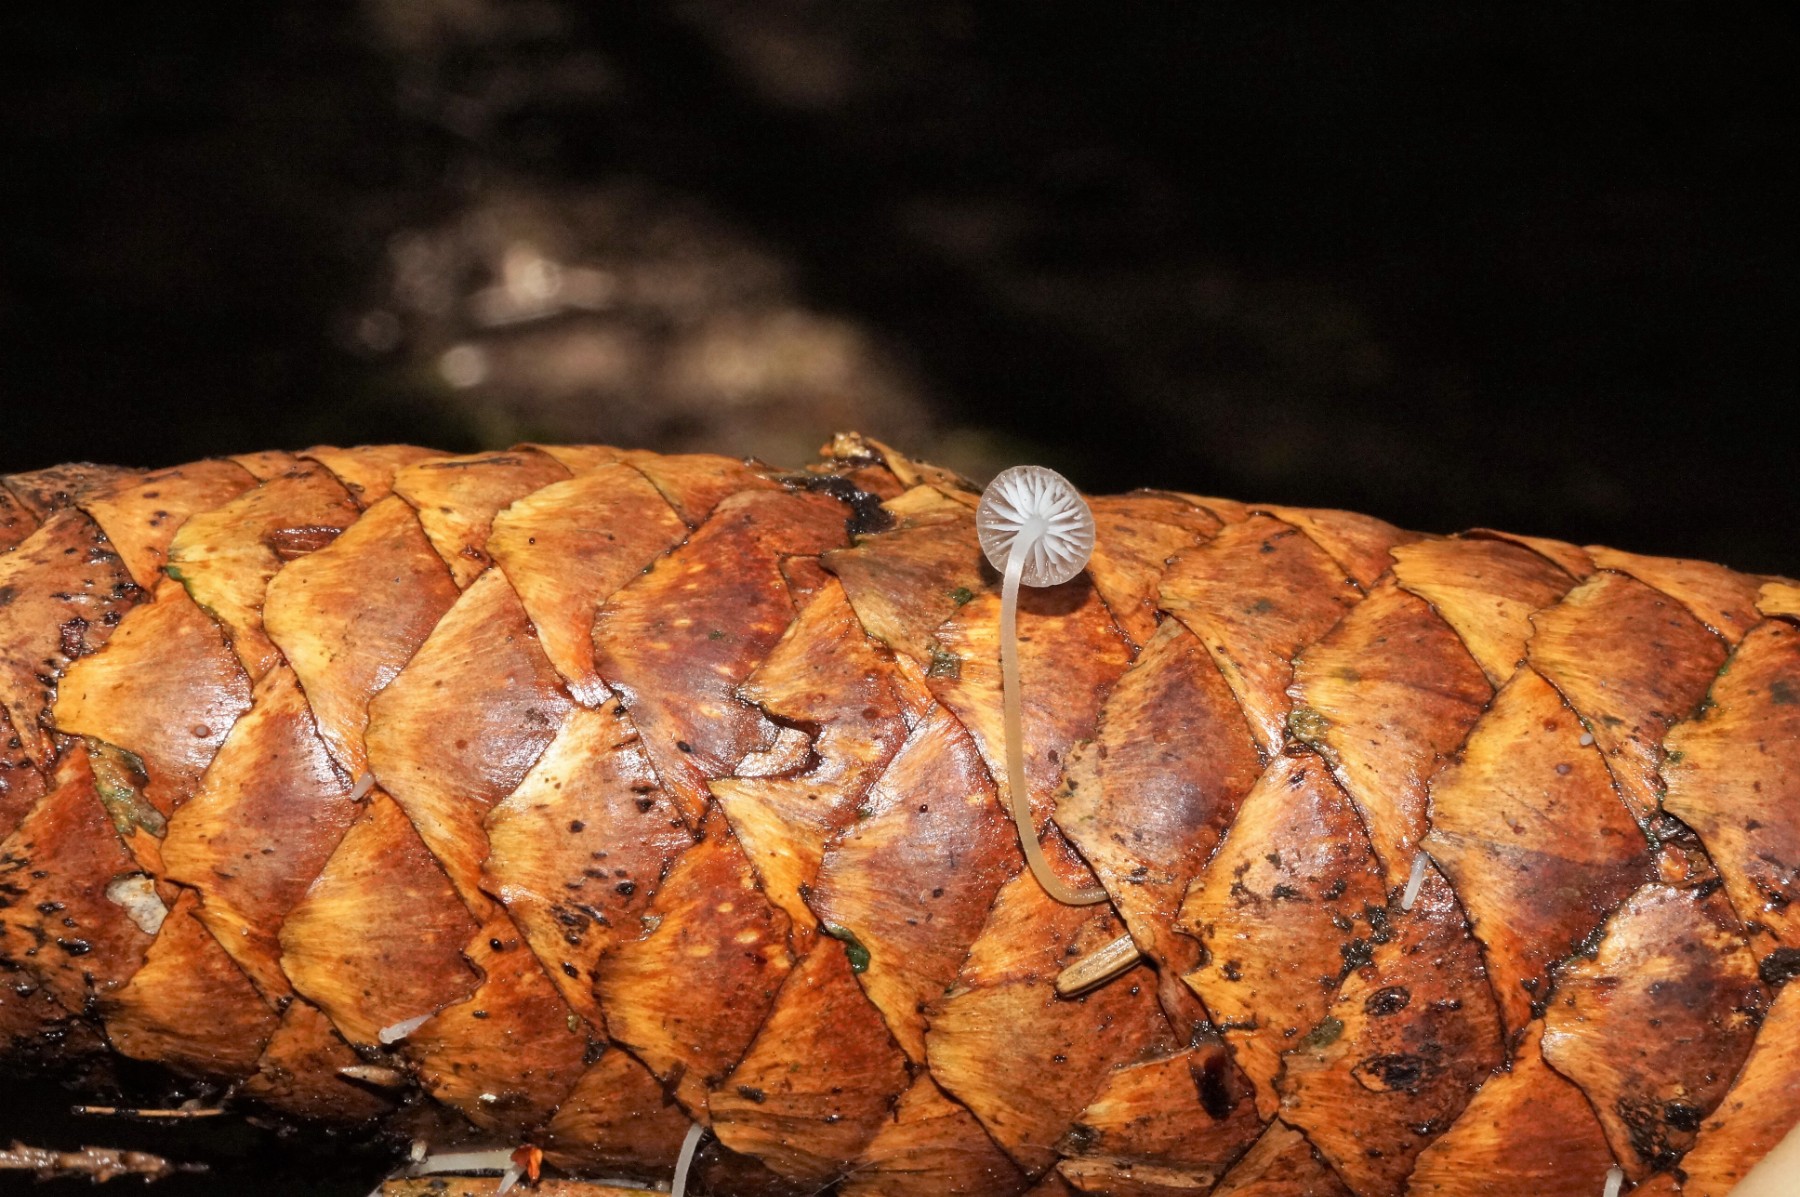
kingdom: Fungi
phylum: Basidiomycota
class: Agaricomycetes
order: Agaricales
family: Physalacriaceae
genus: Strobilurus
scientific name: Strobilurus esculentus
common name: gran-koglehat
